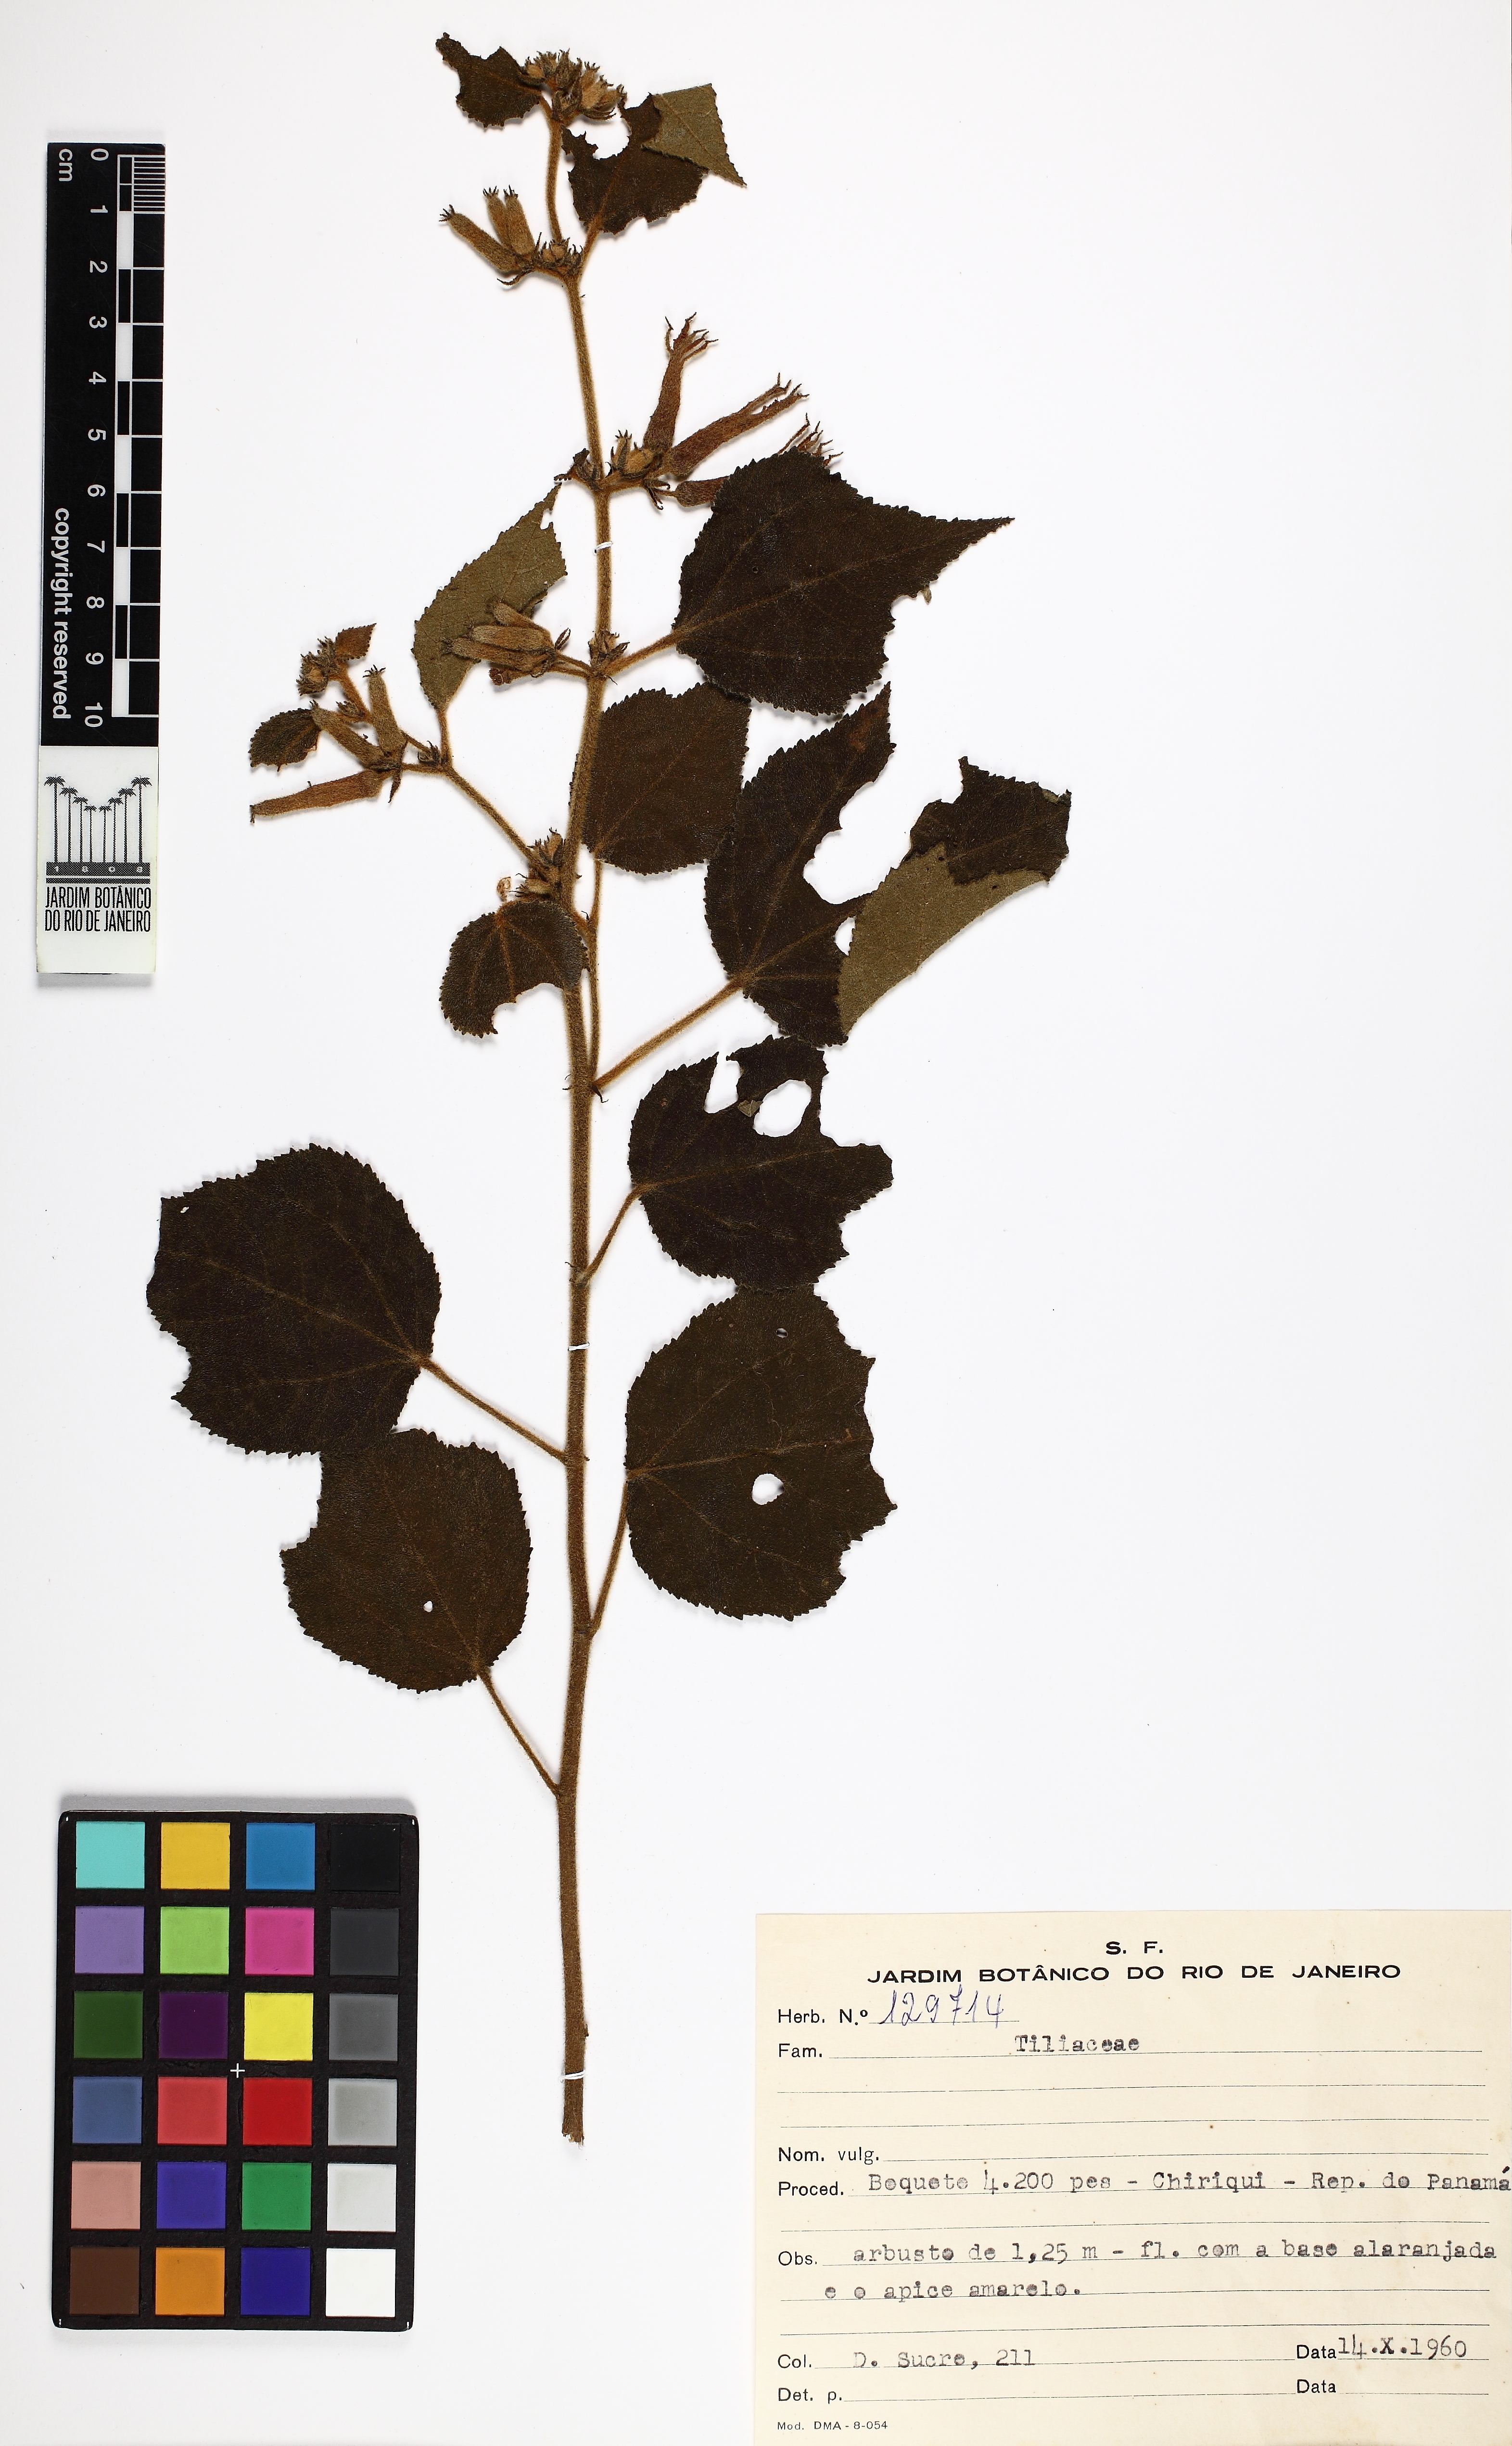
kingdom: Plantae
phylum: Tracheophyta
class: Magnoliopsida
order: Malvales
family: Malvaceae
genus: Triumfetta
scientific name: Triumfetta
